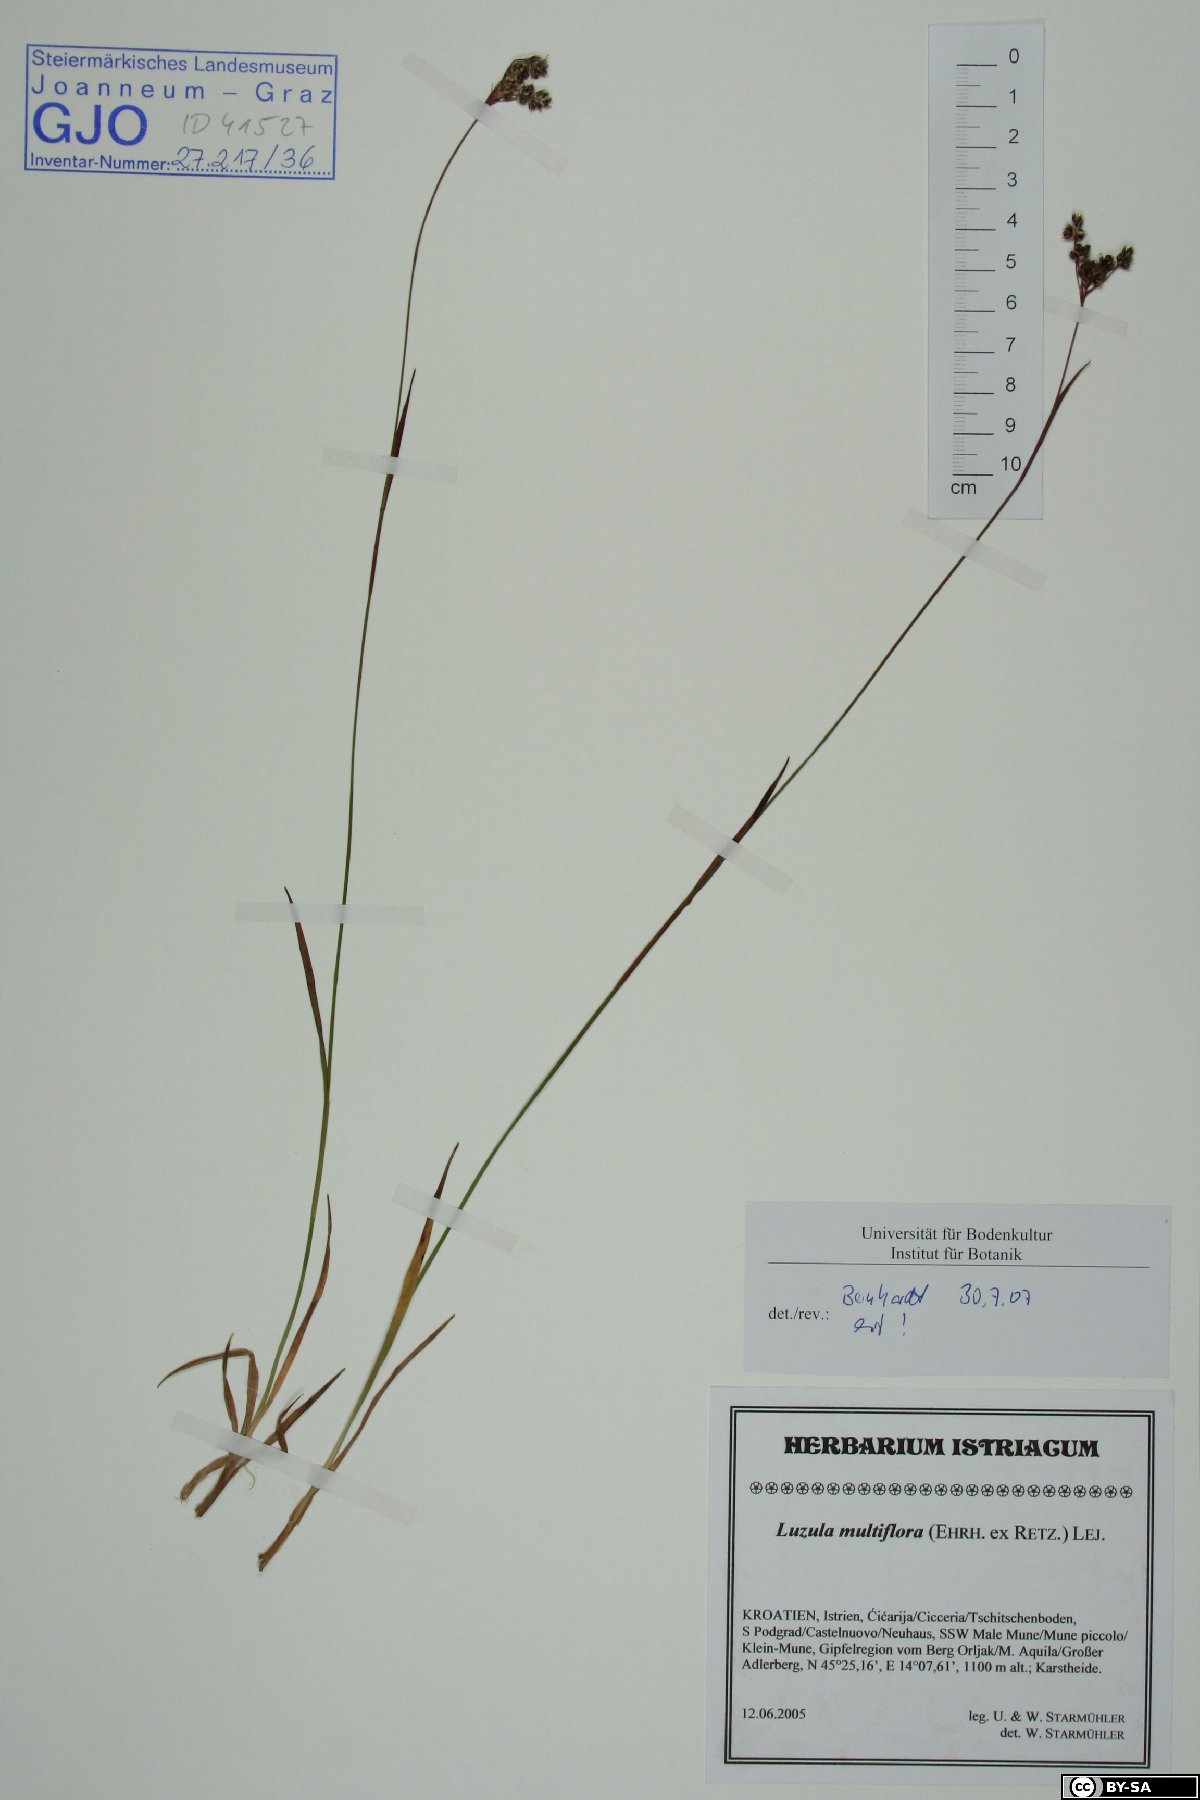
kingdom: Plantae
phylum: Tracheophyta
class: Liliopsida
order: Poales
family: Juncaceae
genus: Luzula
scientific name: Luzula multiflora
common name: Heath wood-rush
